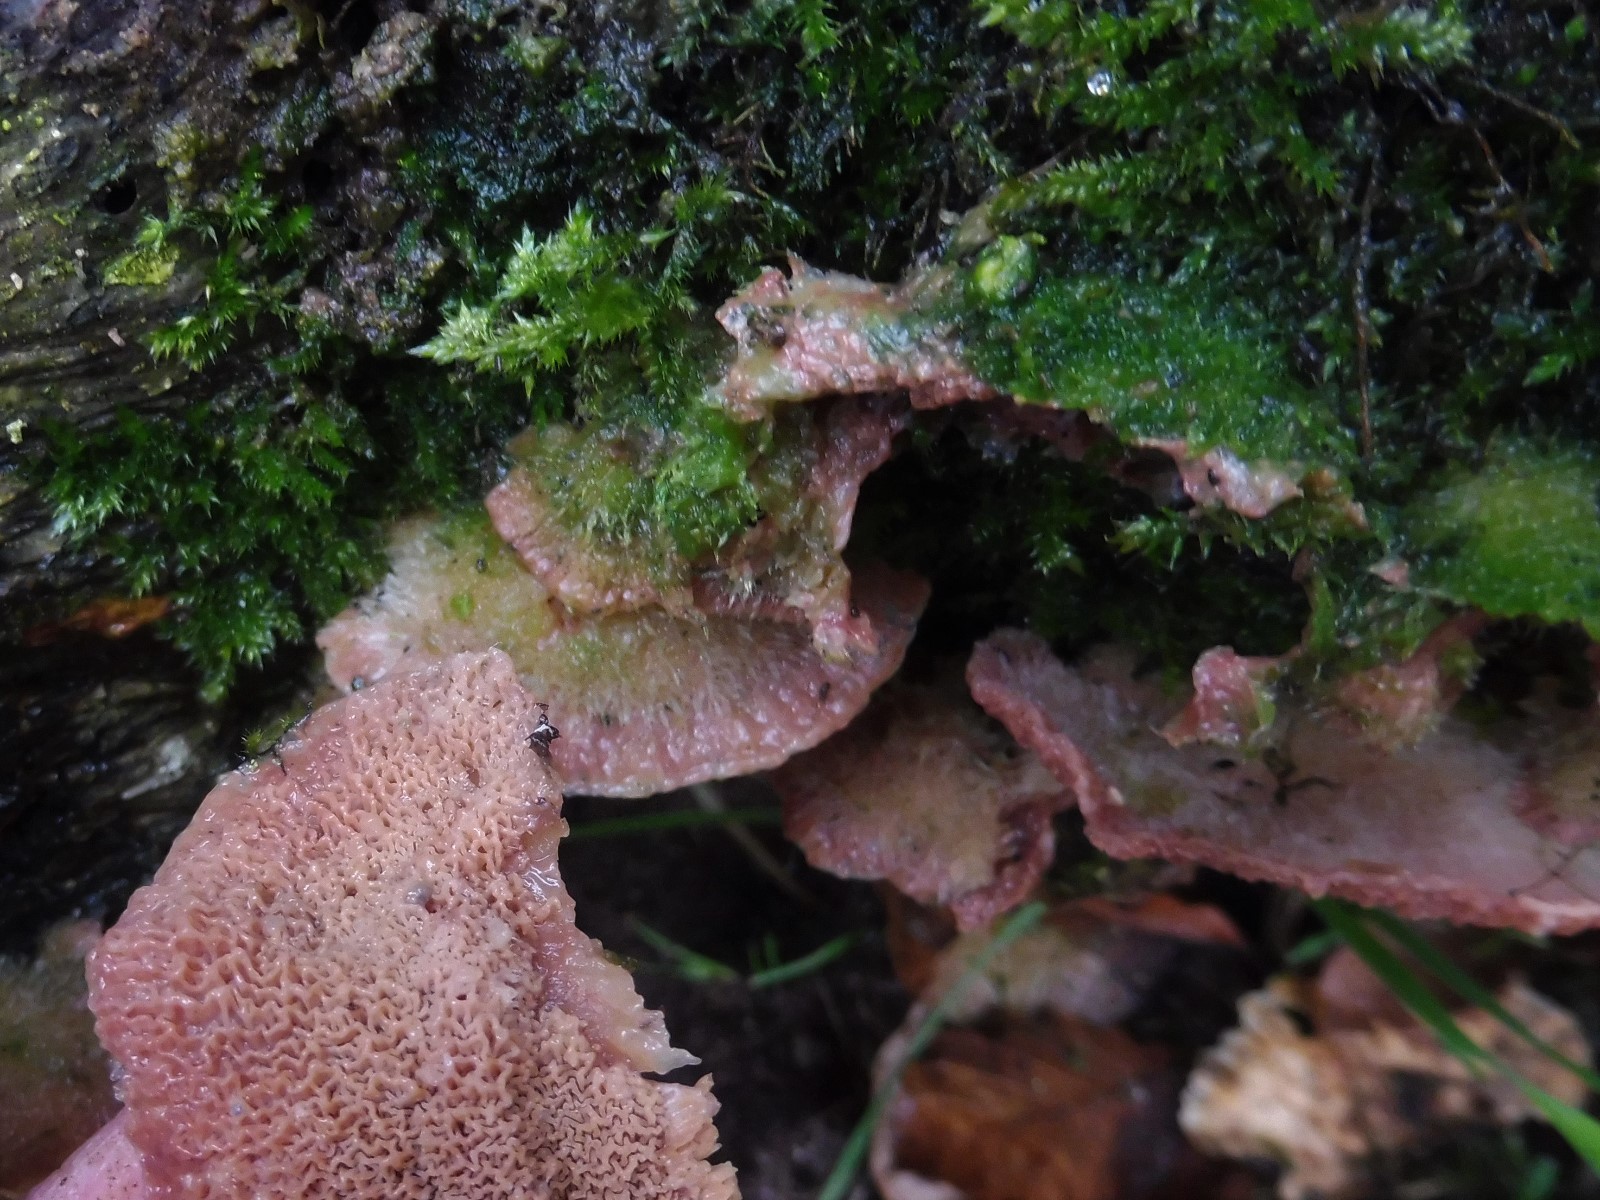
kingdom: Fungi
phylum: Basidiomycota
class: Agaricomycetes
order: Polyporales
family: Meruliaceae
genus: Phlebia
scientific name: Phlebia tremellosa
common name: bævrende åresvamp
